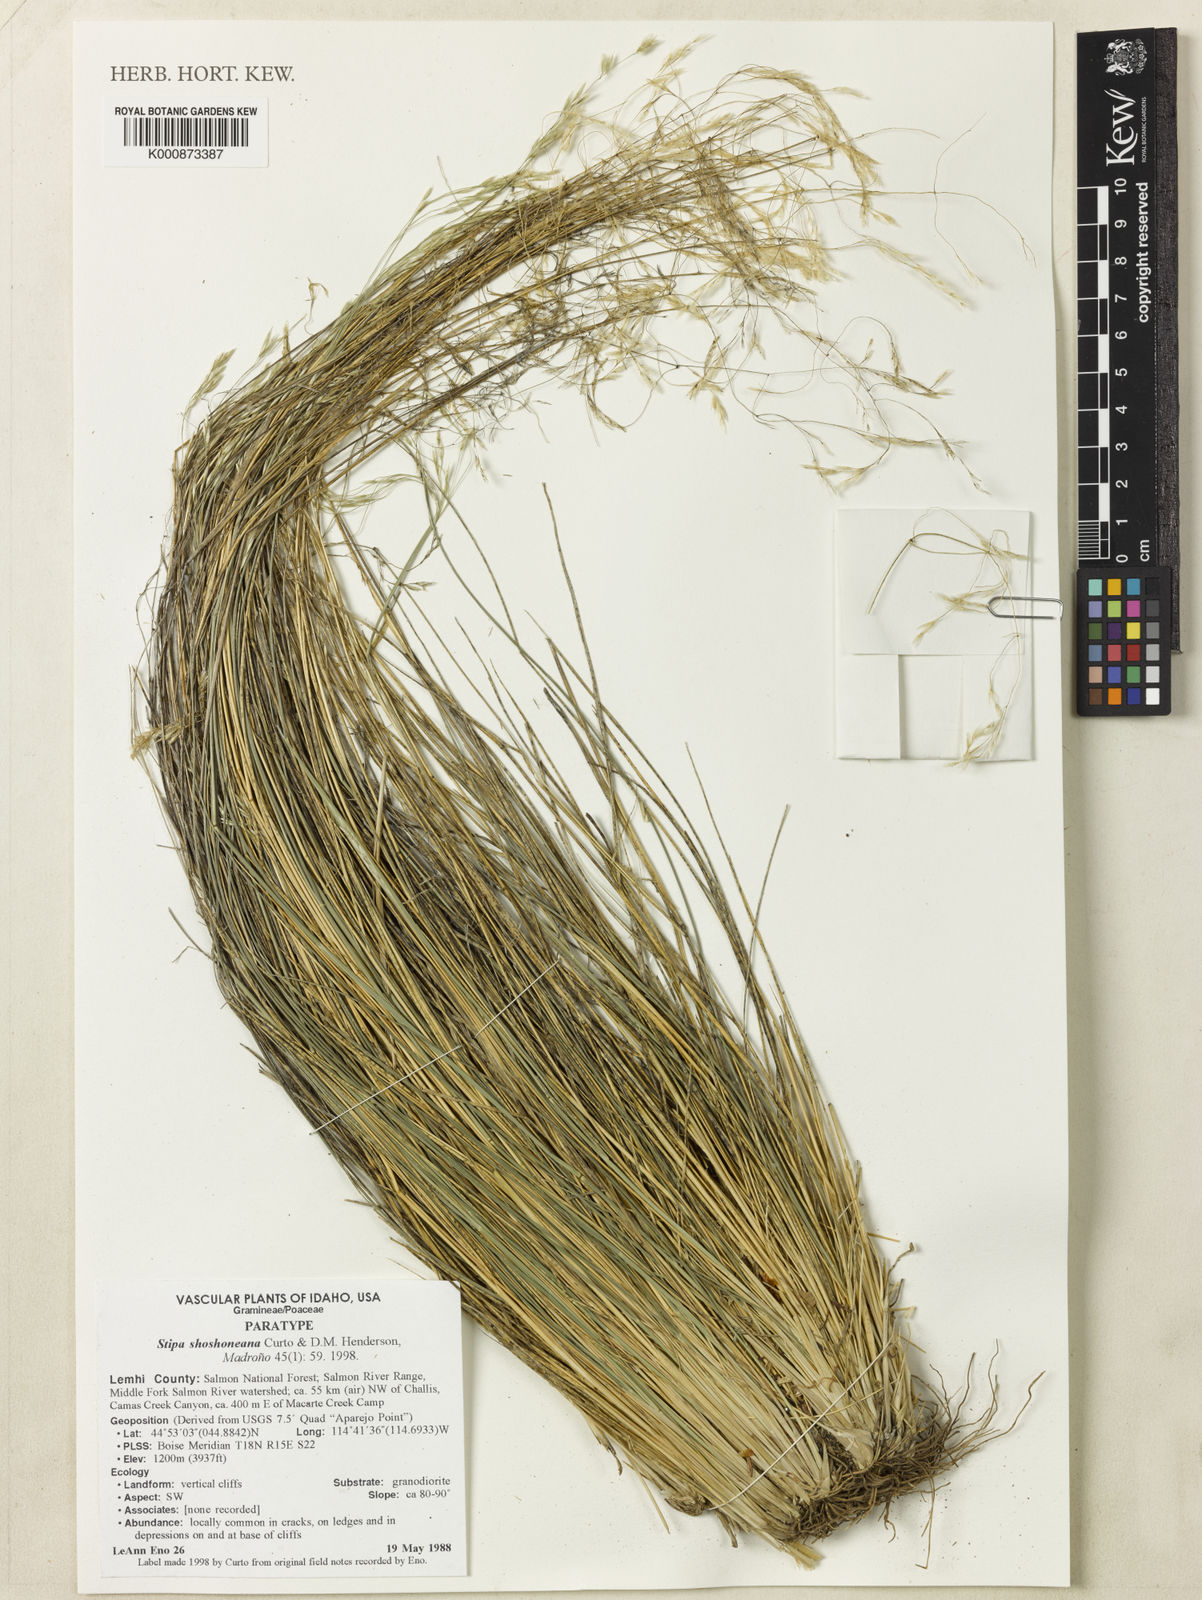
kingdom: Plantae
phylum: Tracheophyta
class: Liliopsida
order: Poales
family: Poaceae
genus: Piptatheropsis
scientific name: Piptatheropsis shoshoneana
